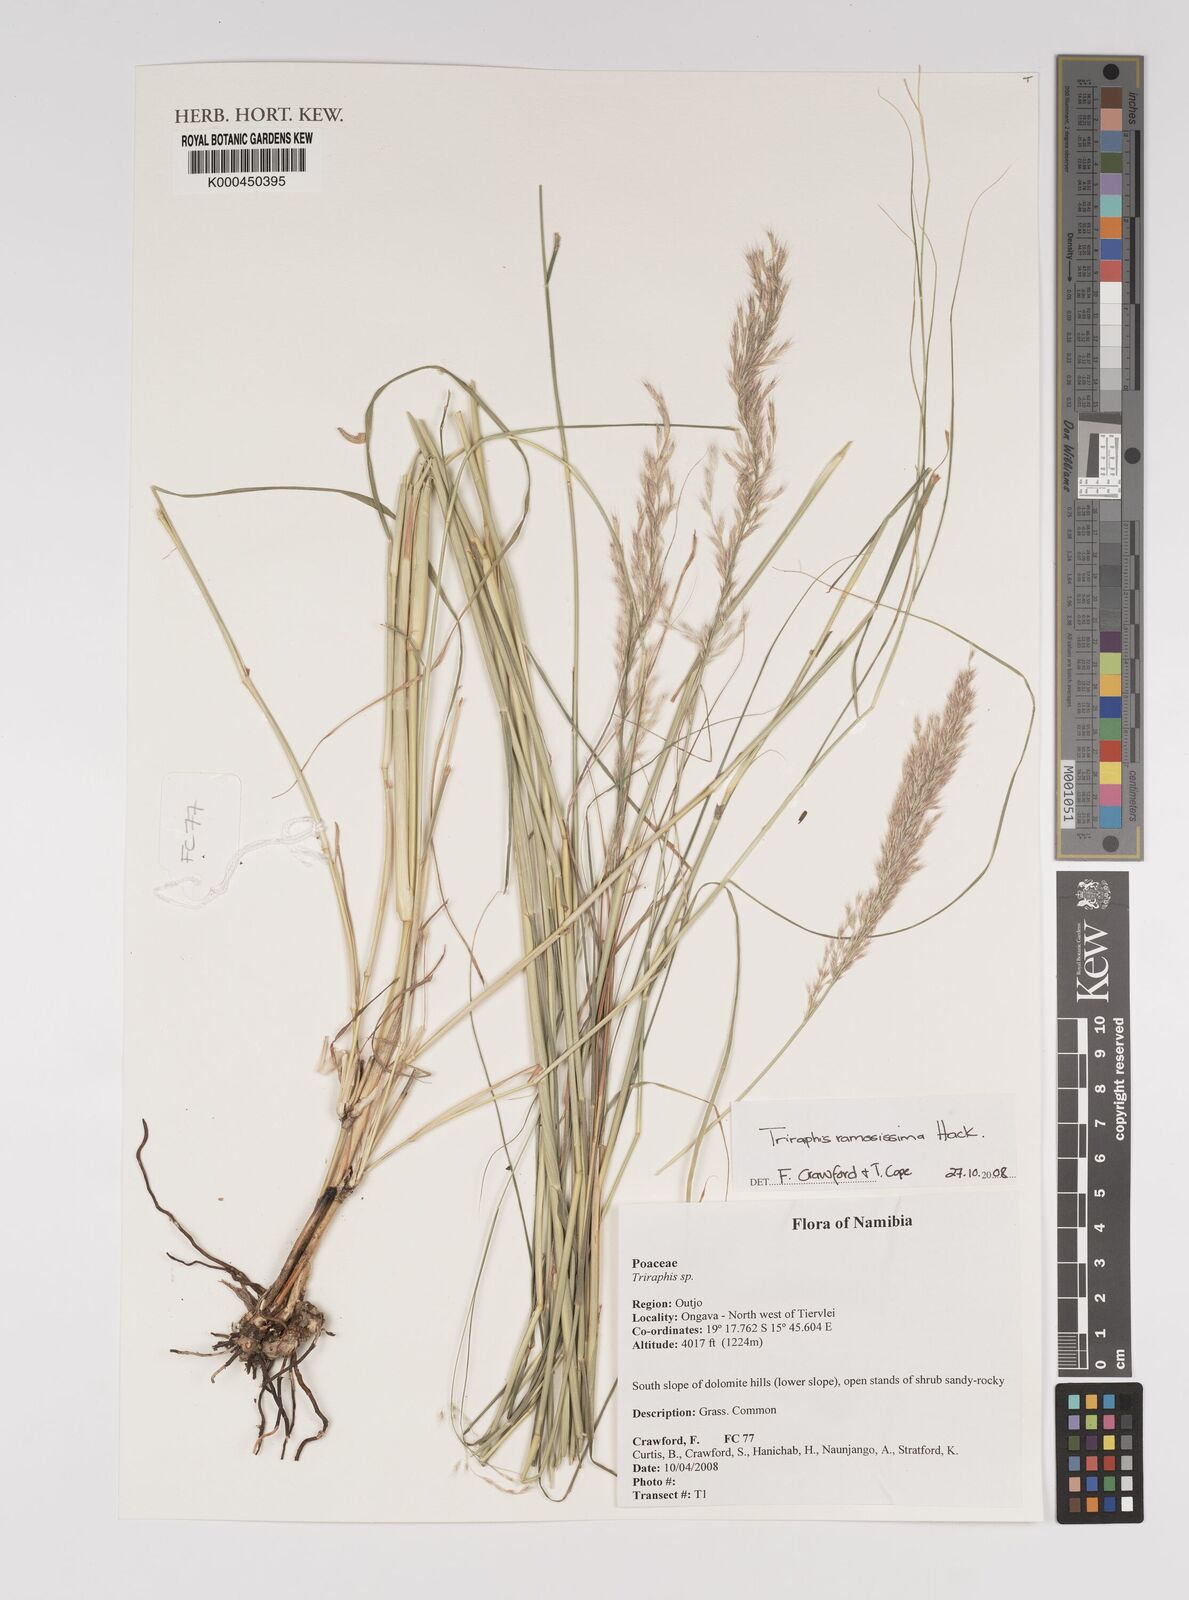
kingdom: Plantae
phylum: Tracheophyta
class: Liliopsida
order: Poales
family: Poaceae
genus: Triraphis
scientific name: Triraphis ramosissima
